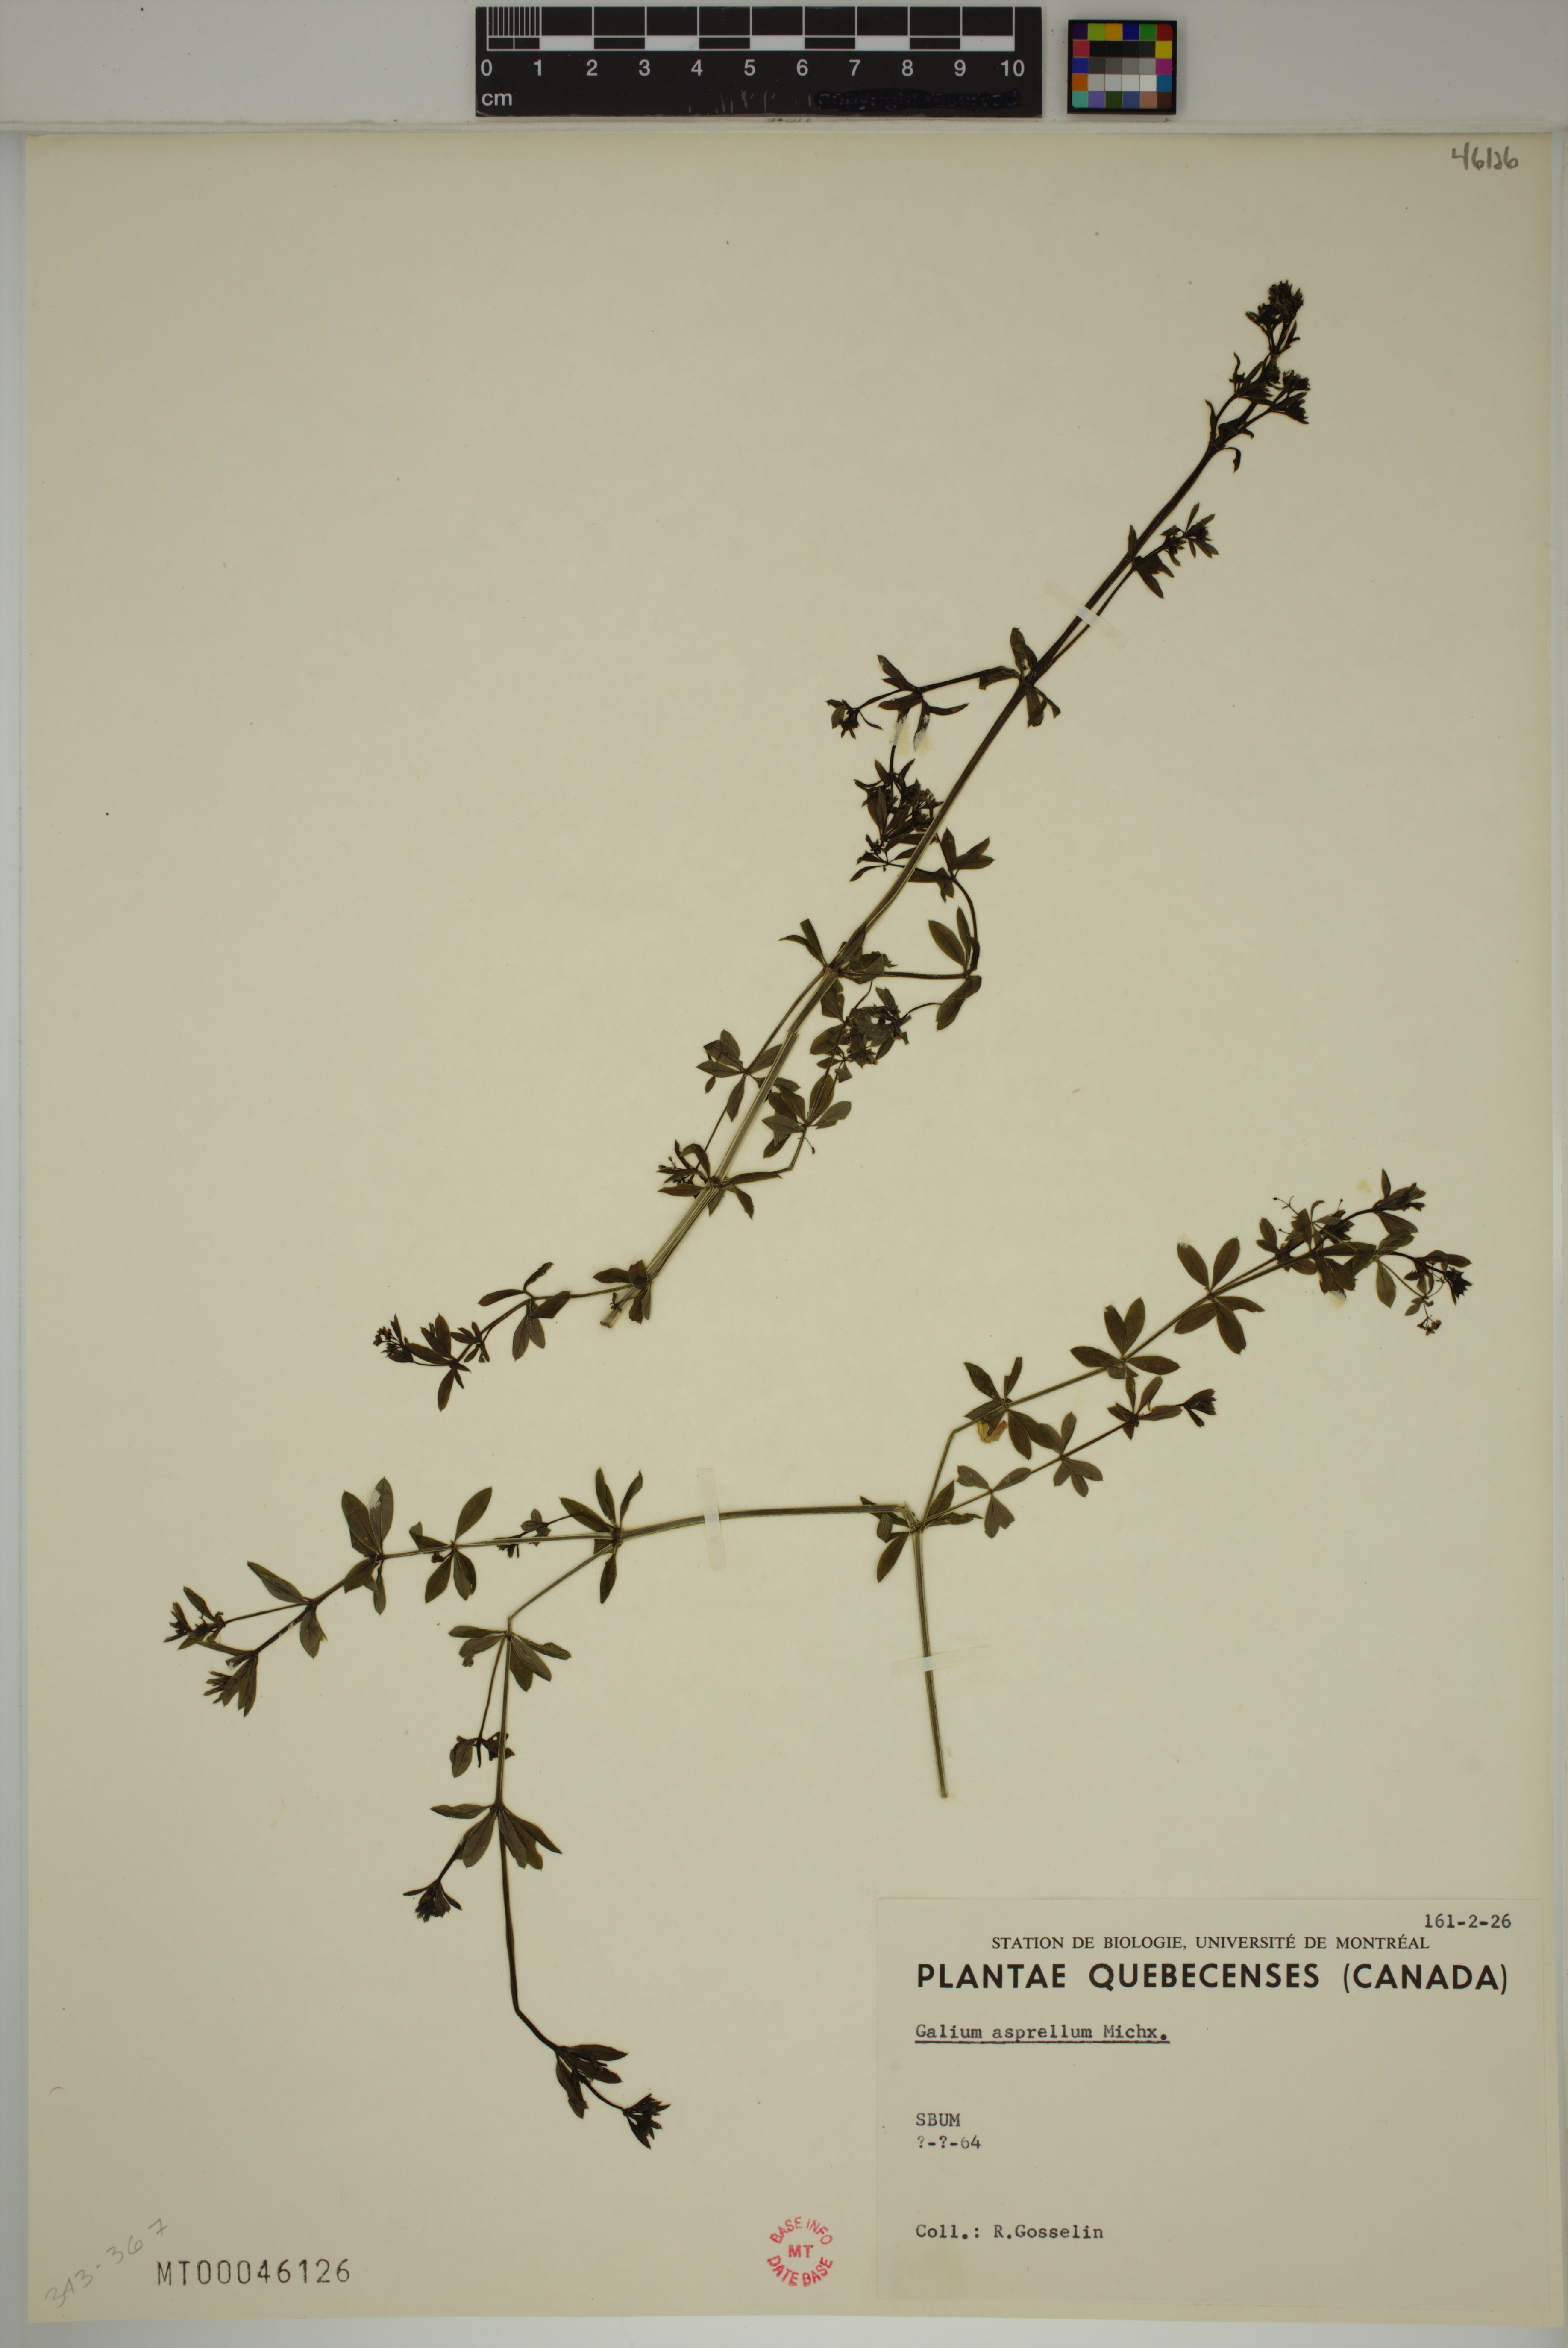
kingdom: Plantae
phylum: Tracheophyta
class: Magnoliopsida
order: Gentianales
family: Rubiaceae
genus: Galium
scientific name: Galium asprellum
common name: Rough bedstraw
